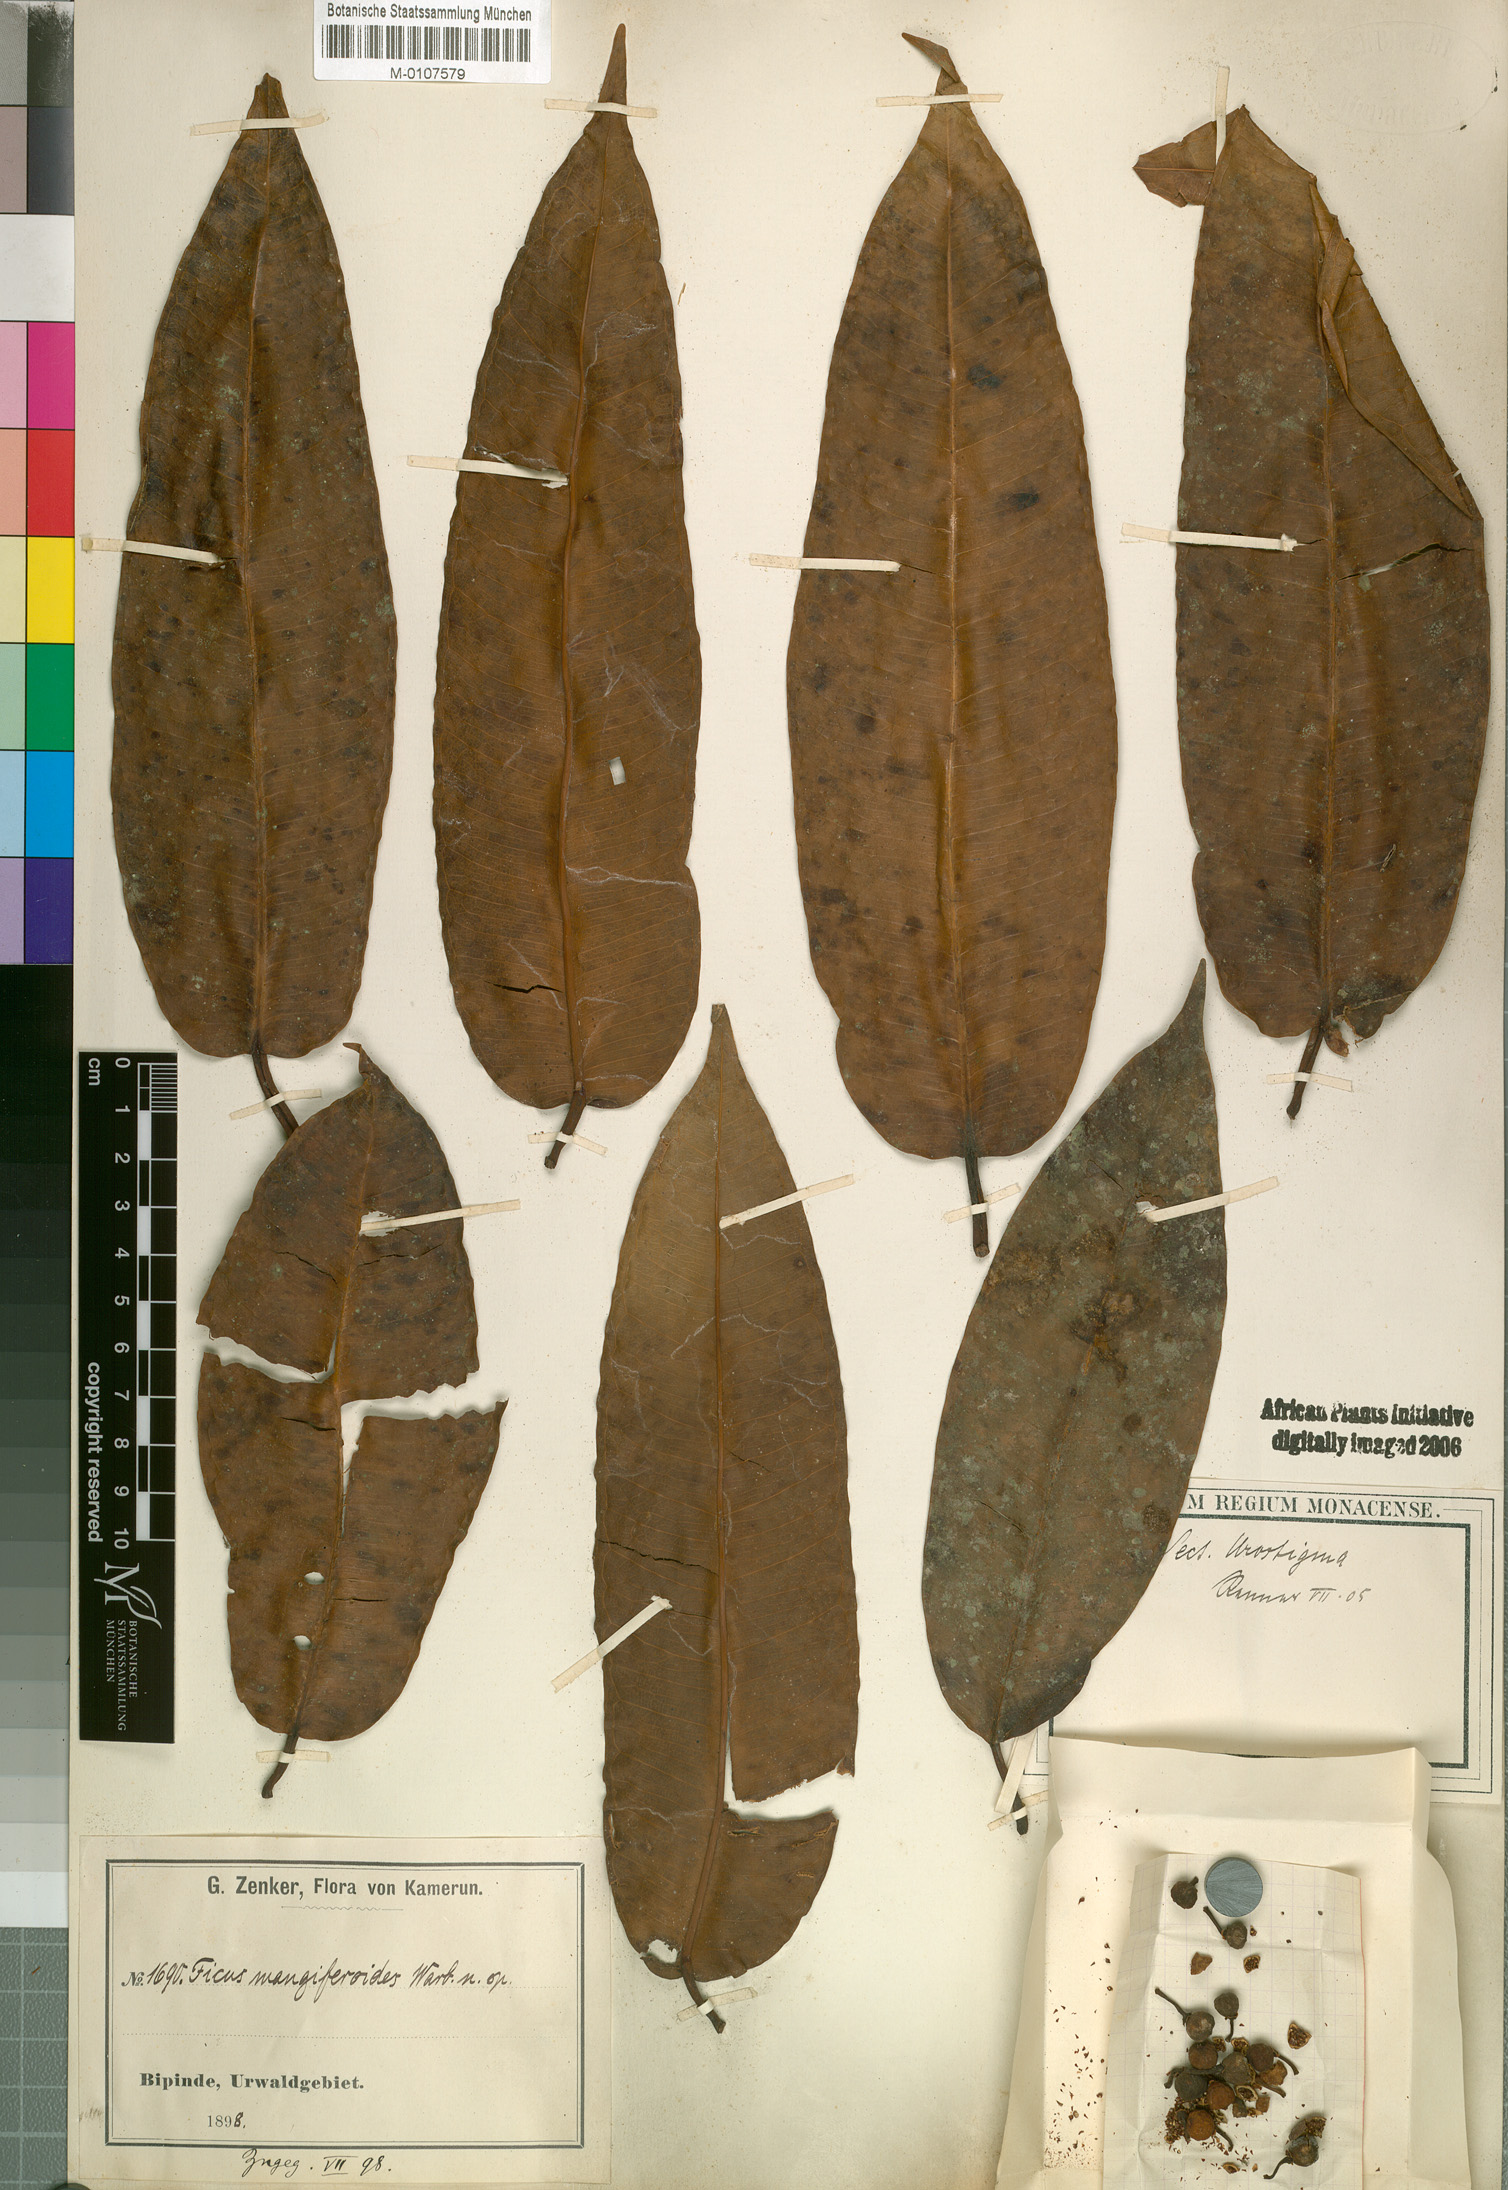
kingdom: Plantae
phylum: Tracheophyta
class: Magnoliopsida
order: Rosales
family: Moraceae
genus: Ficus
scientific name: Ficus pseudomangifera
